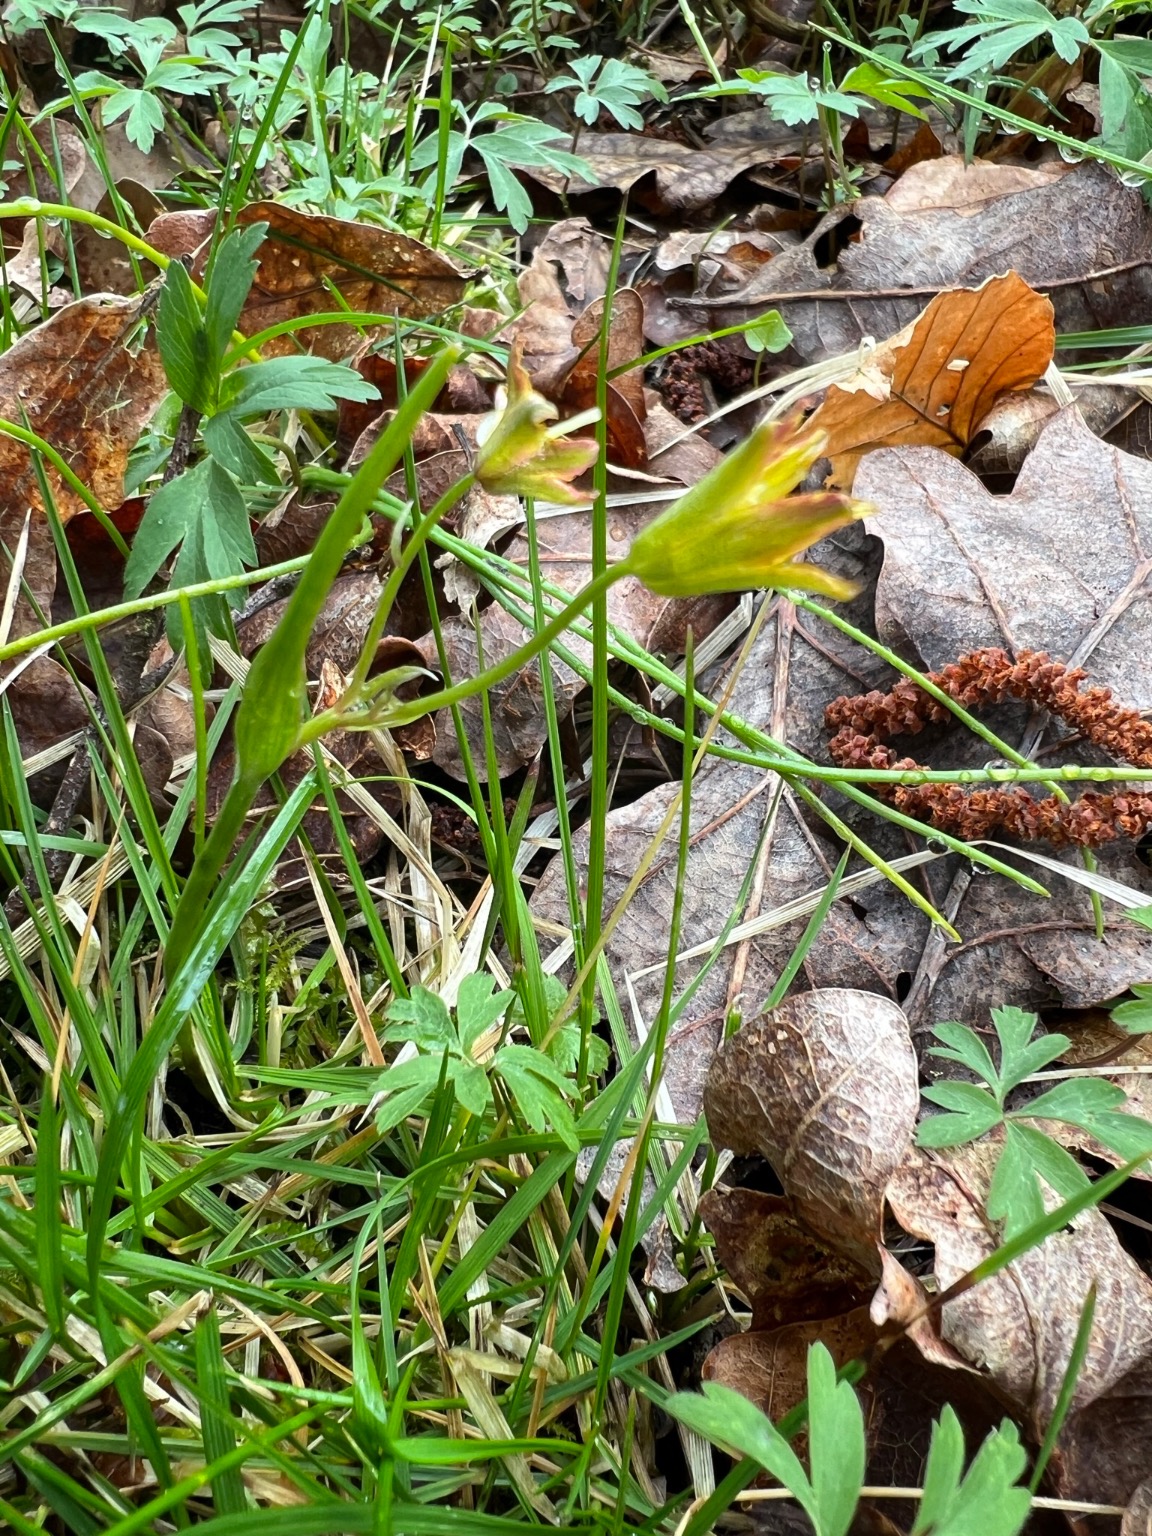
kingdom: Plantae
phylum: Tracheophyta
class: Liliopsida
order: Liliales
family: Liliaceae
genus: Gagea
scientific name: Gagea spathacea
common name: Hylster-guldstjerne
